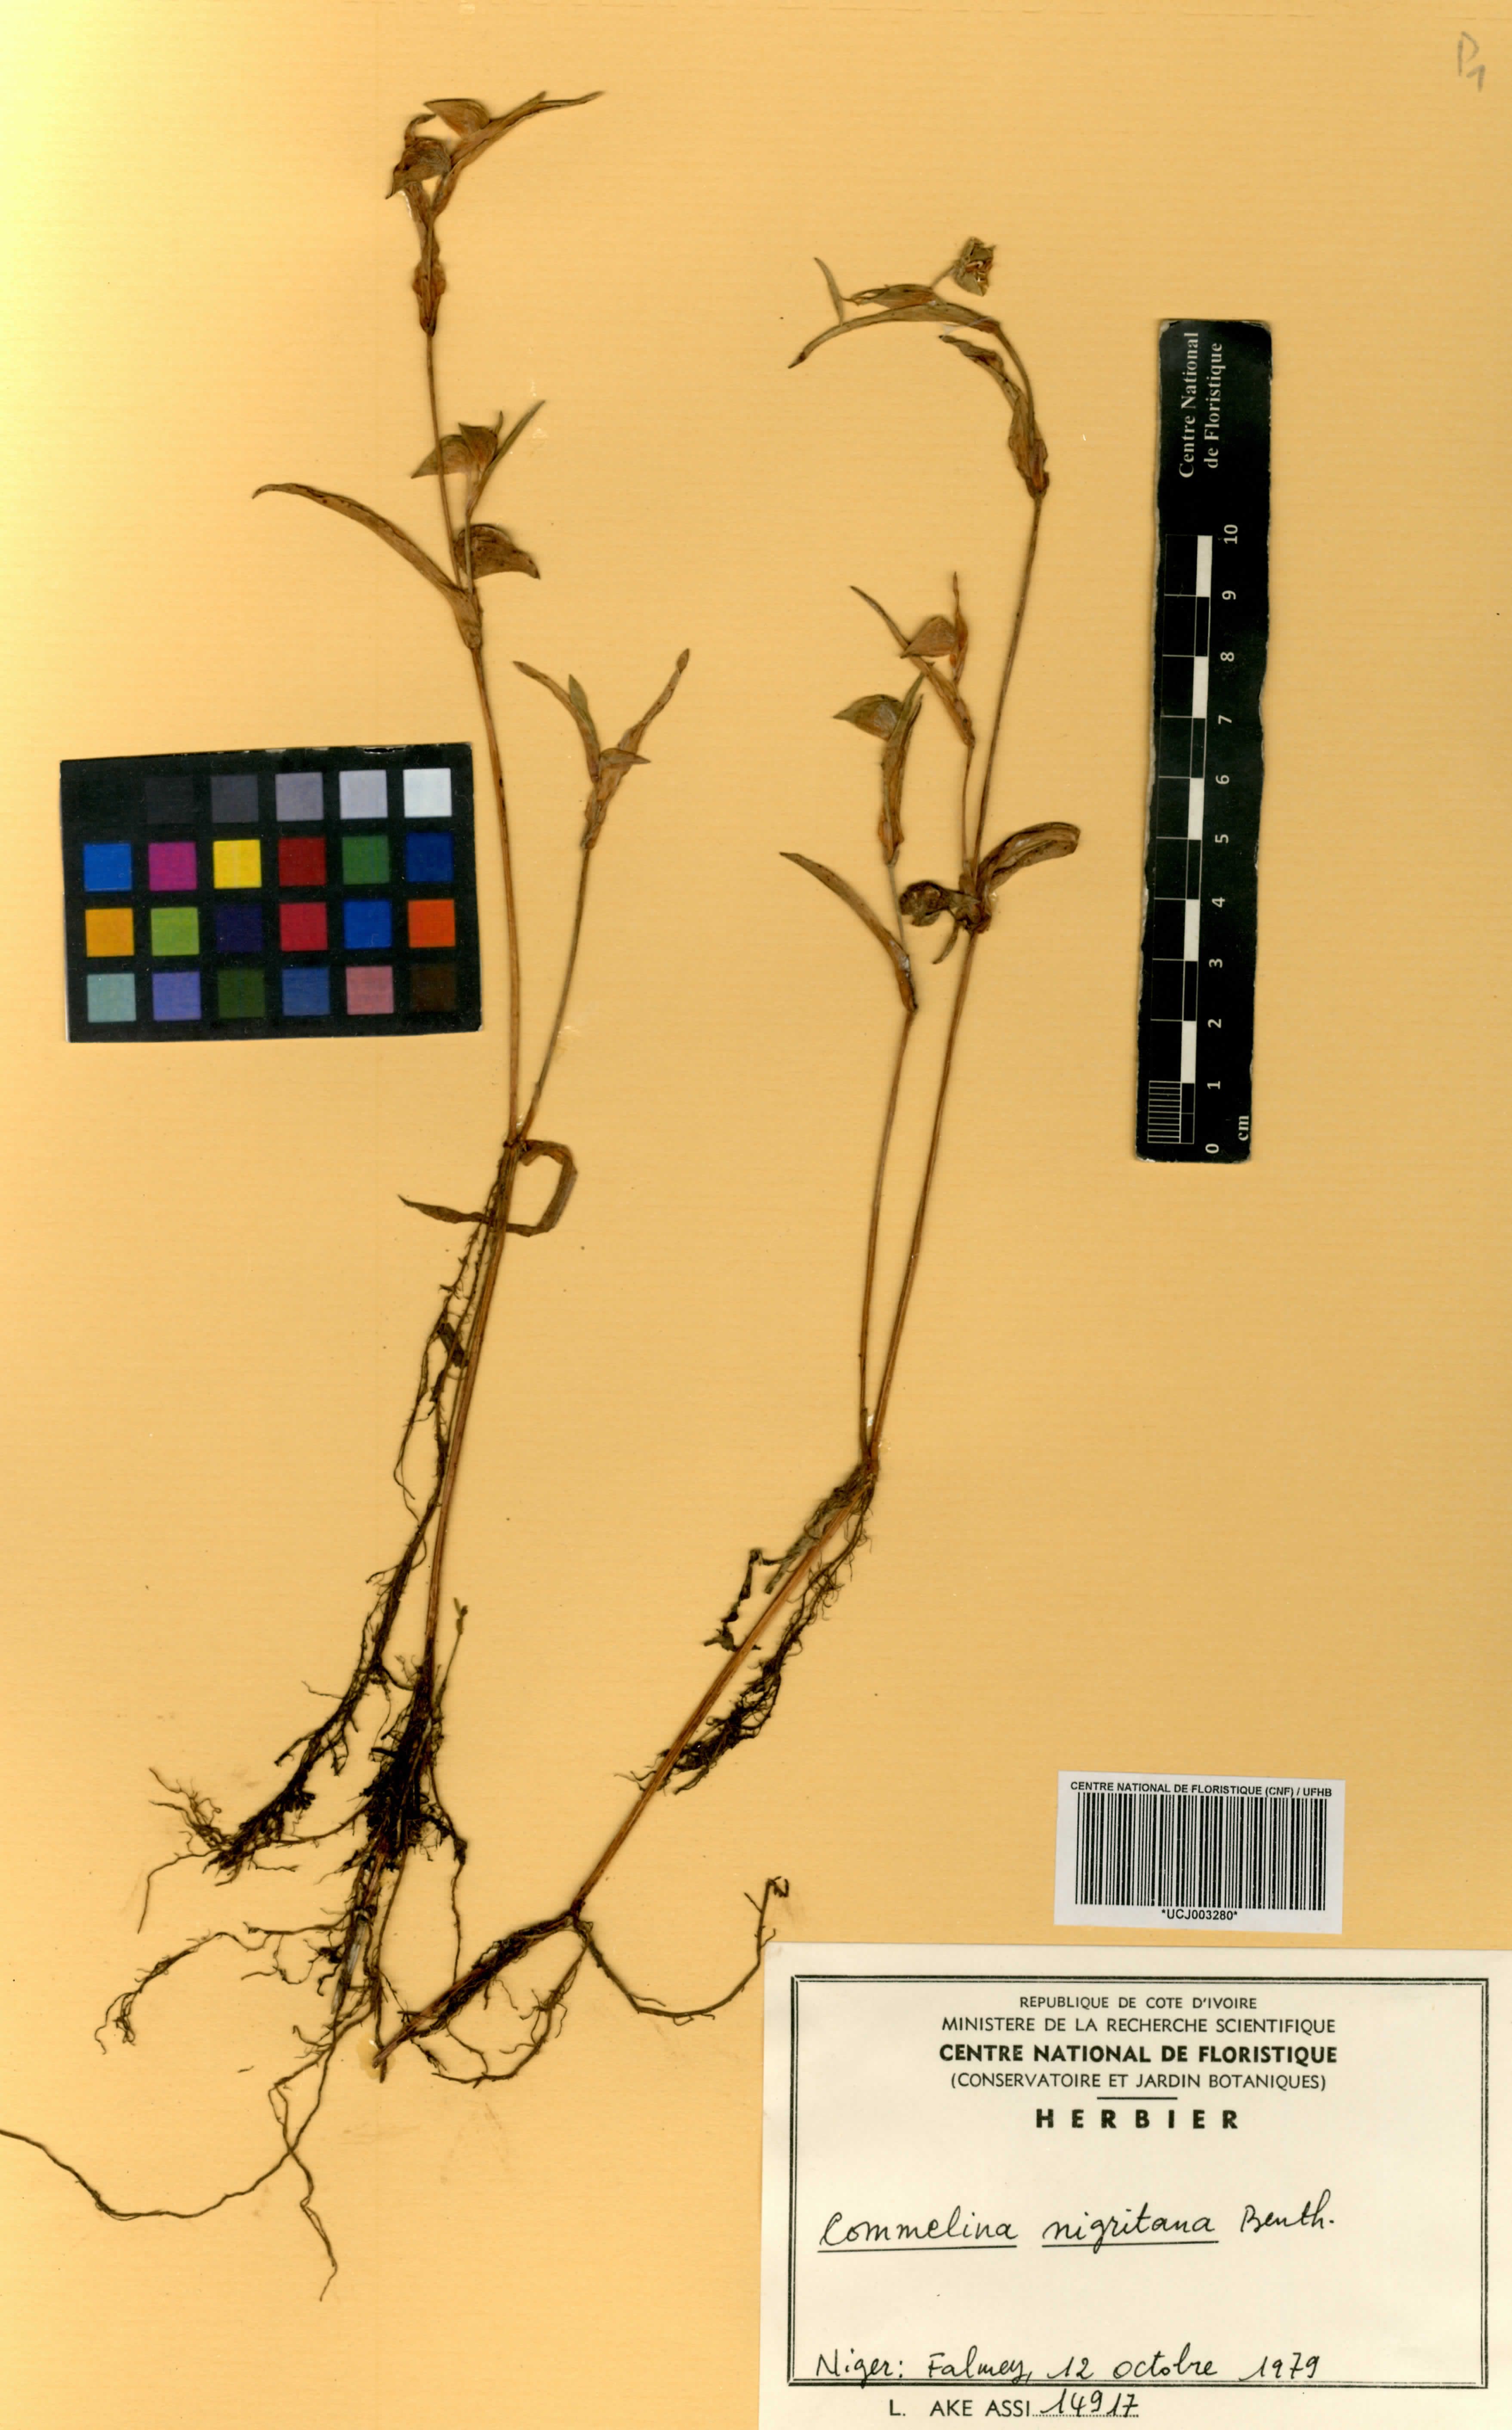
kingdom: Plantae
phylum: Tracheophyta
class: Liliopsida
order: Commelinales
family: Commelinaceae
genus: Commelina
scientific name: Commelina nigritana
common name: African dayflower
